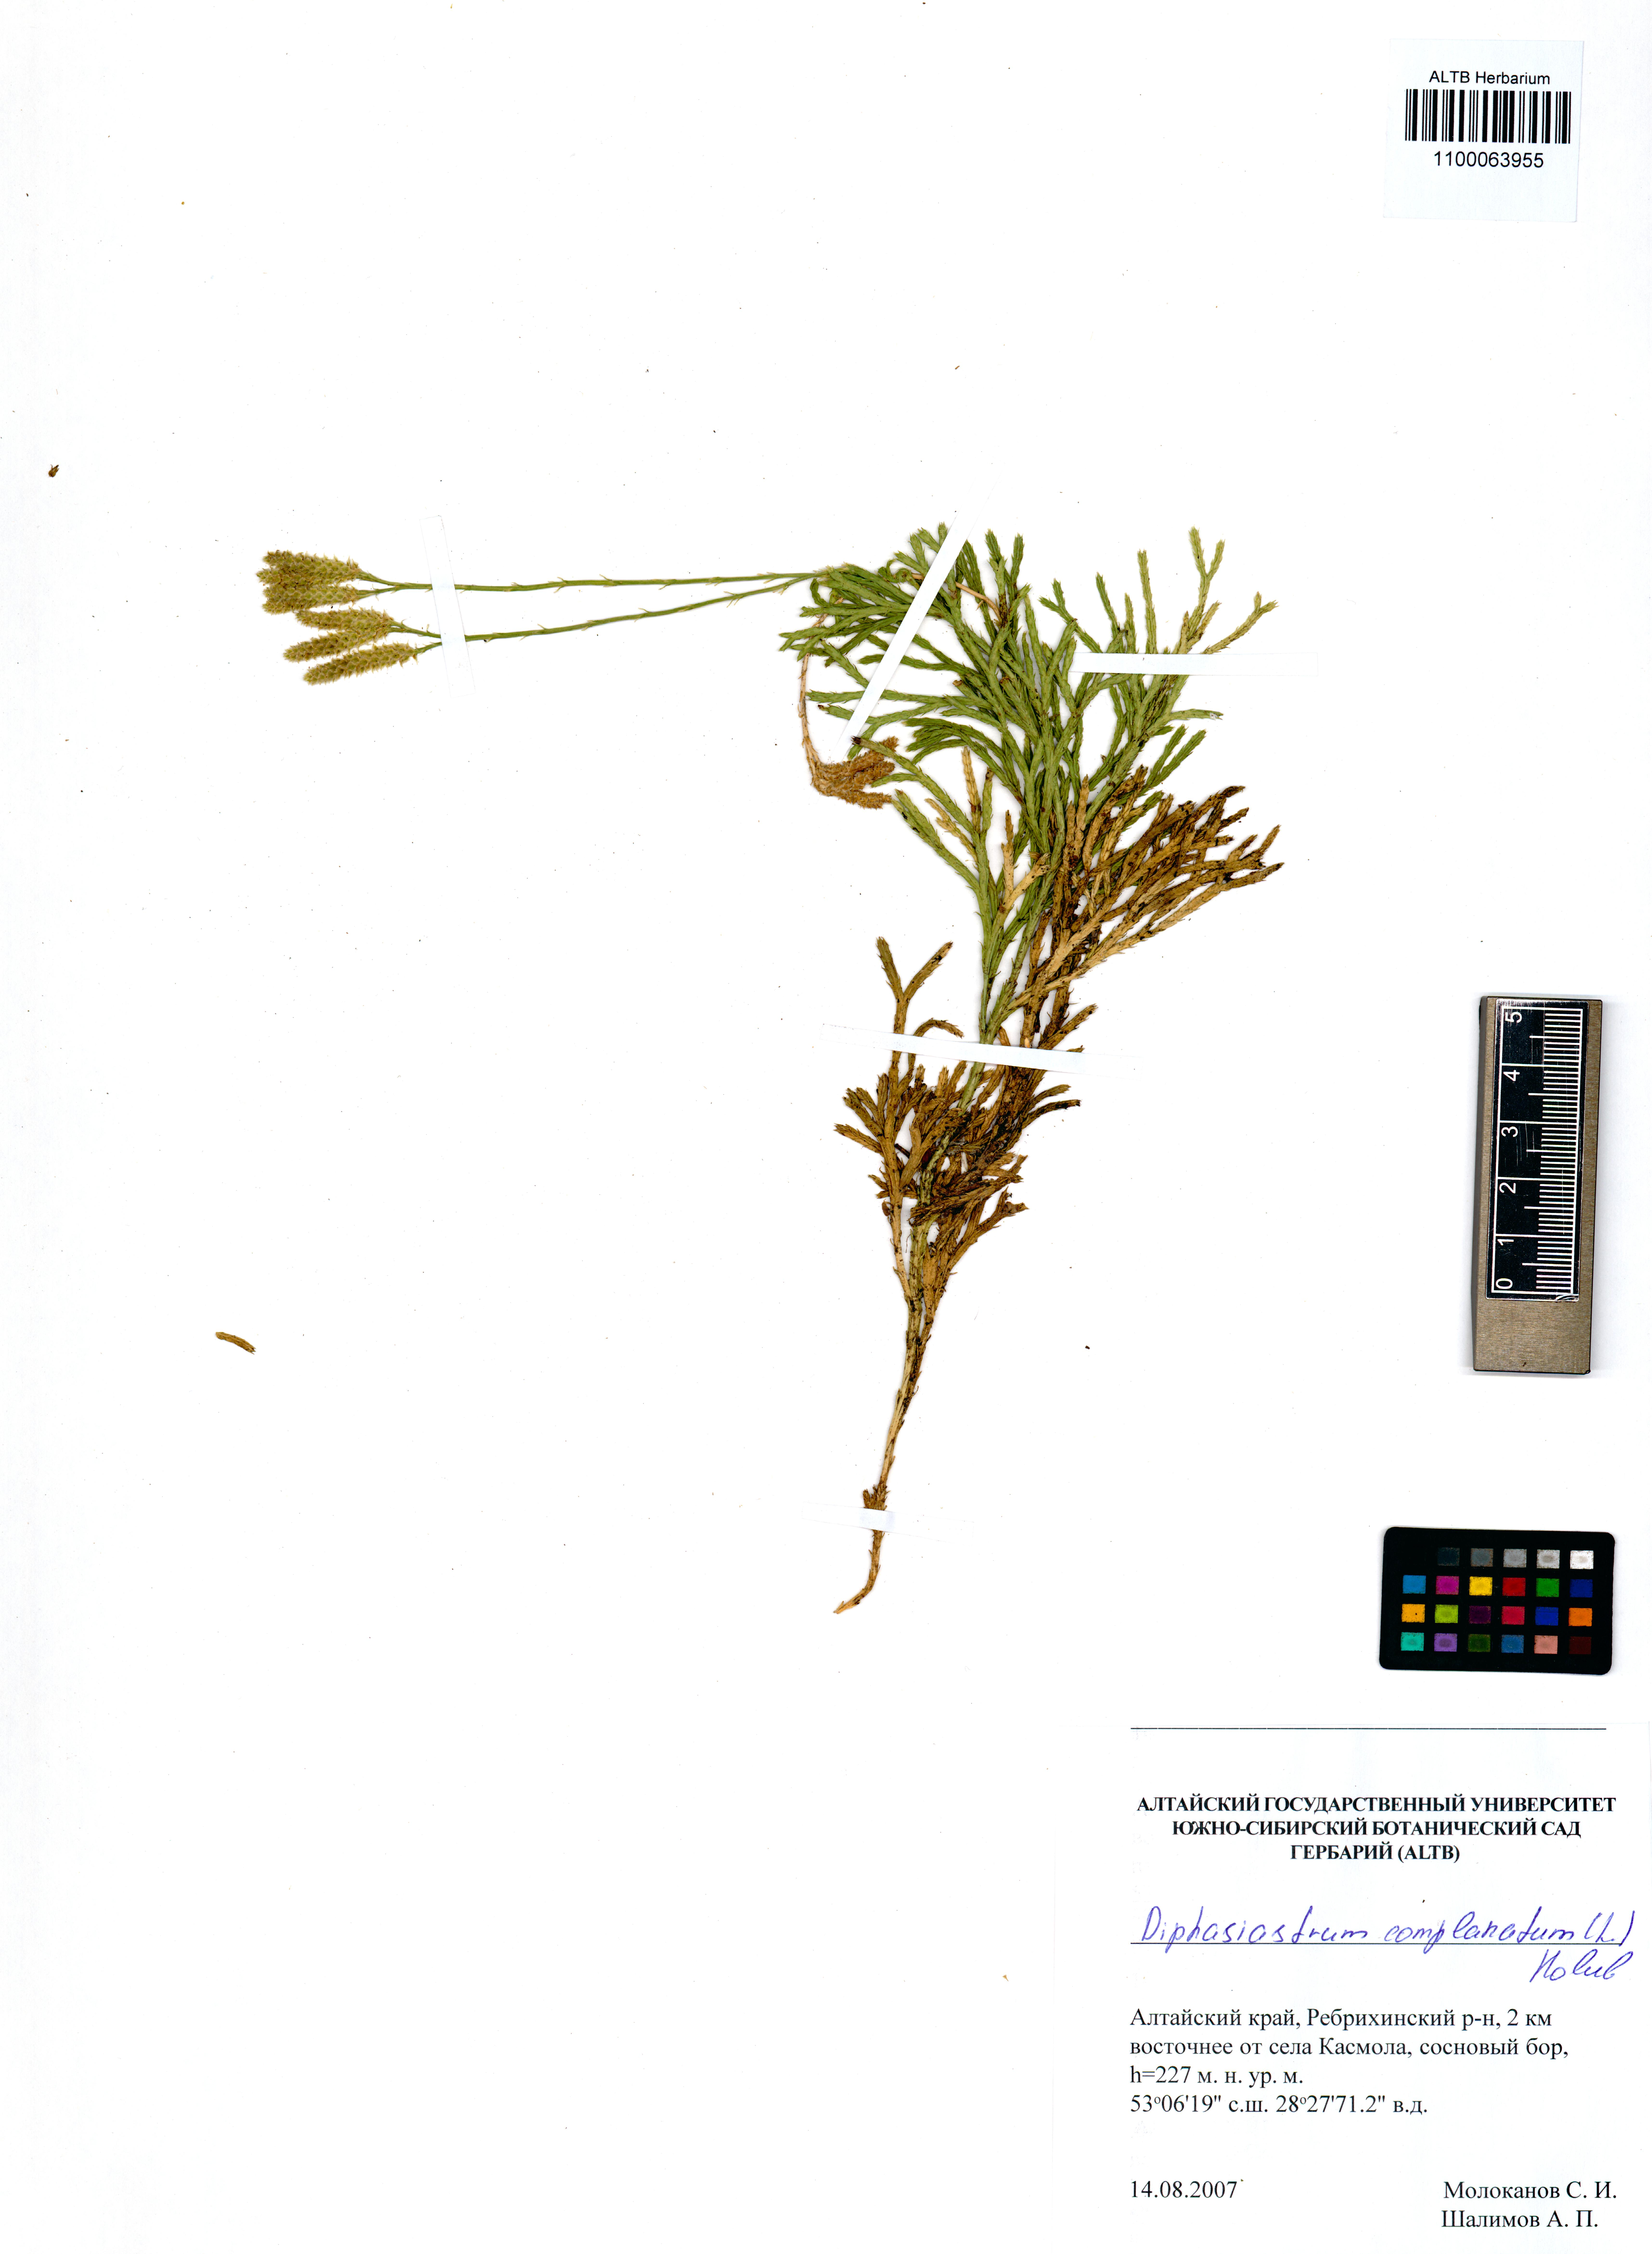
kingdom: Plantae
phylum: Tracheophyta
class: Lycopodiopsida
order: Lycopodiales
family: Lycopodiaceae
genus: Diphasiastrum
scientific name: Diphasiastrum complanatum
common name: Northern running-pine
